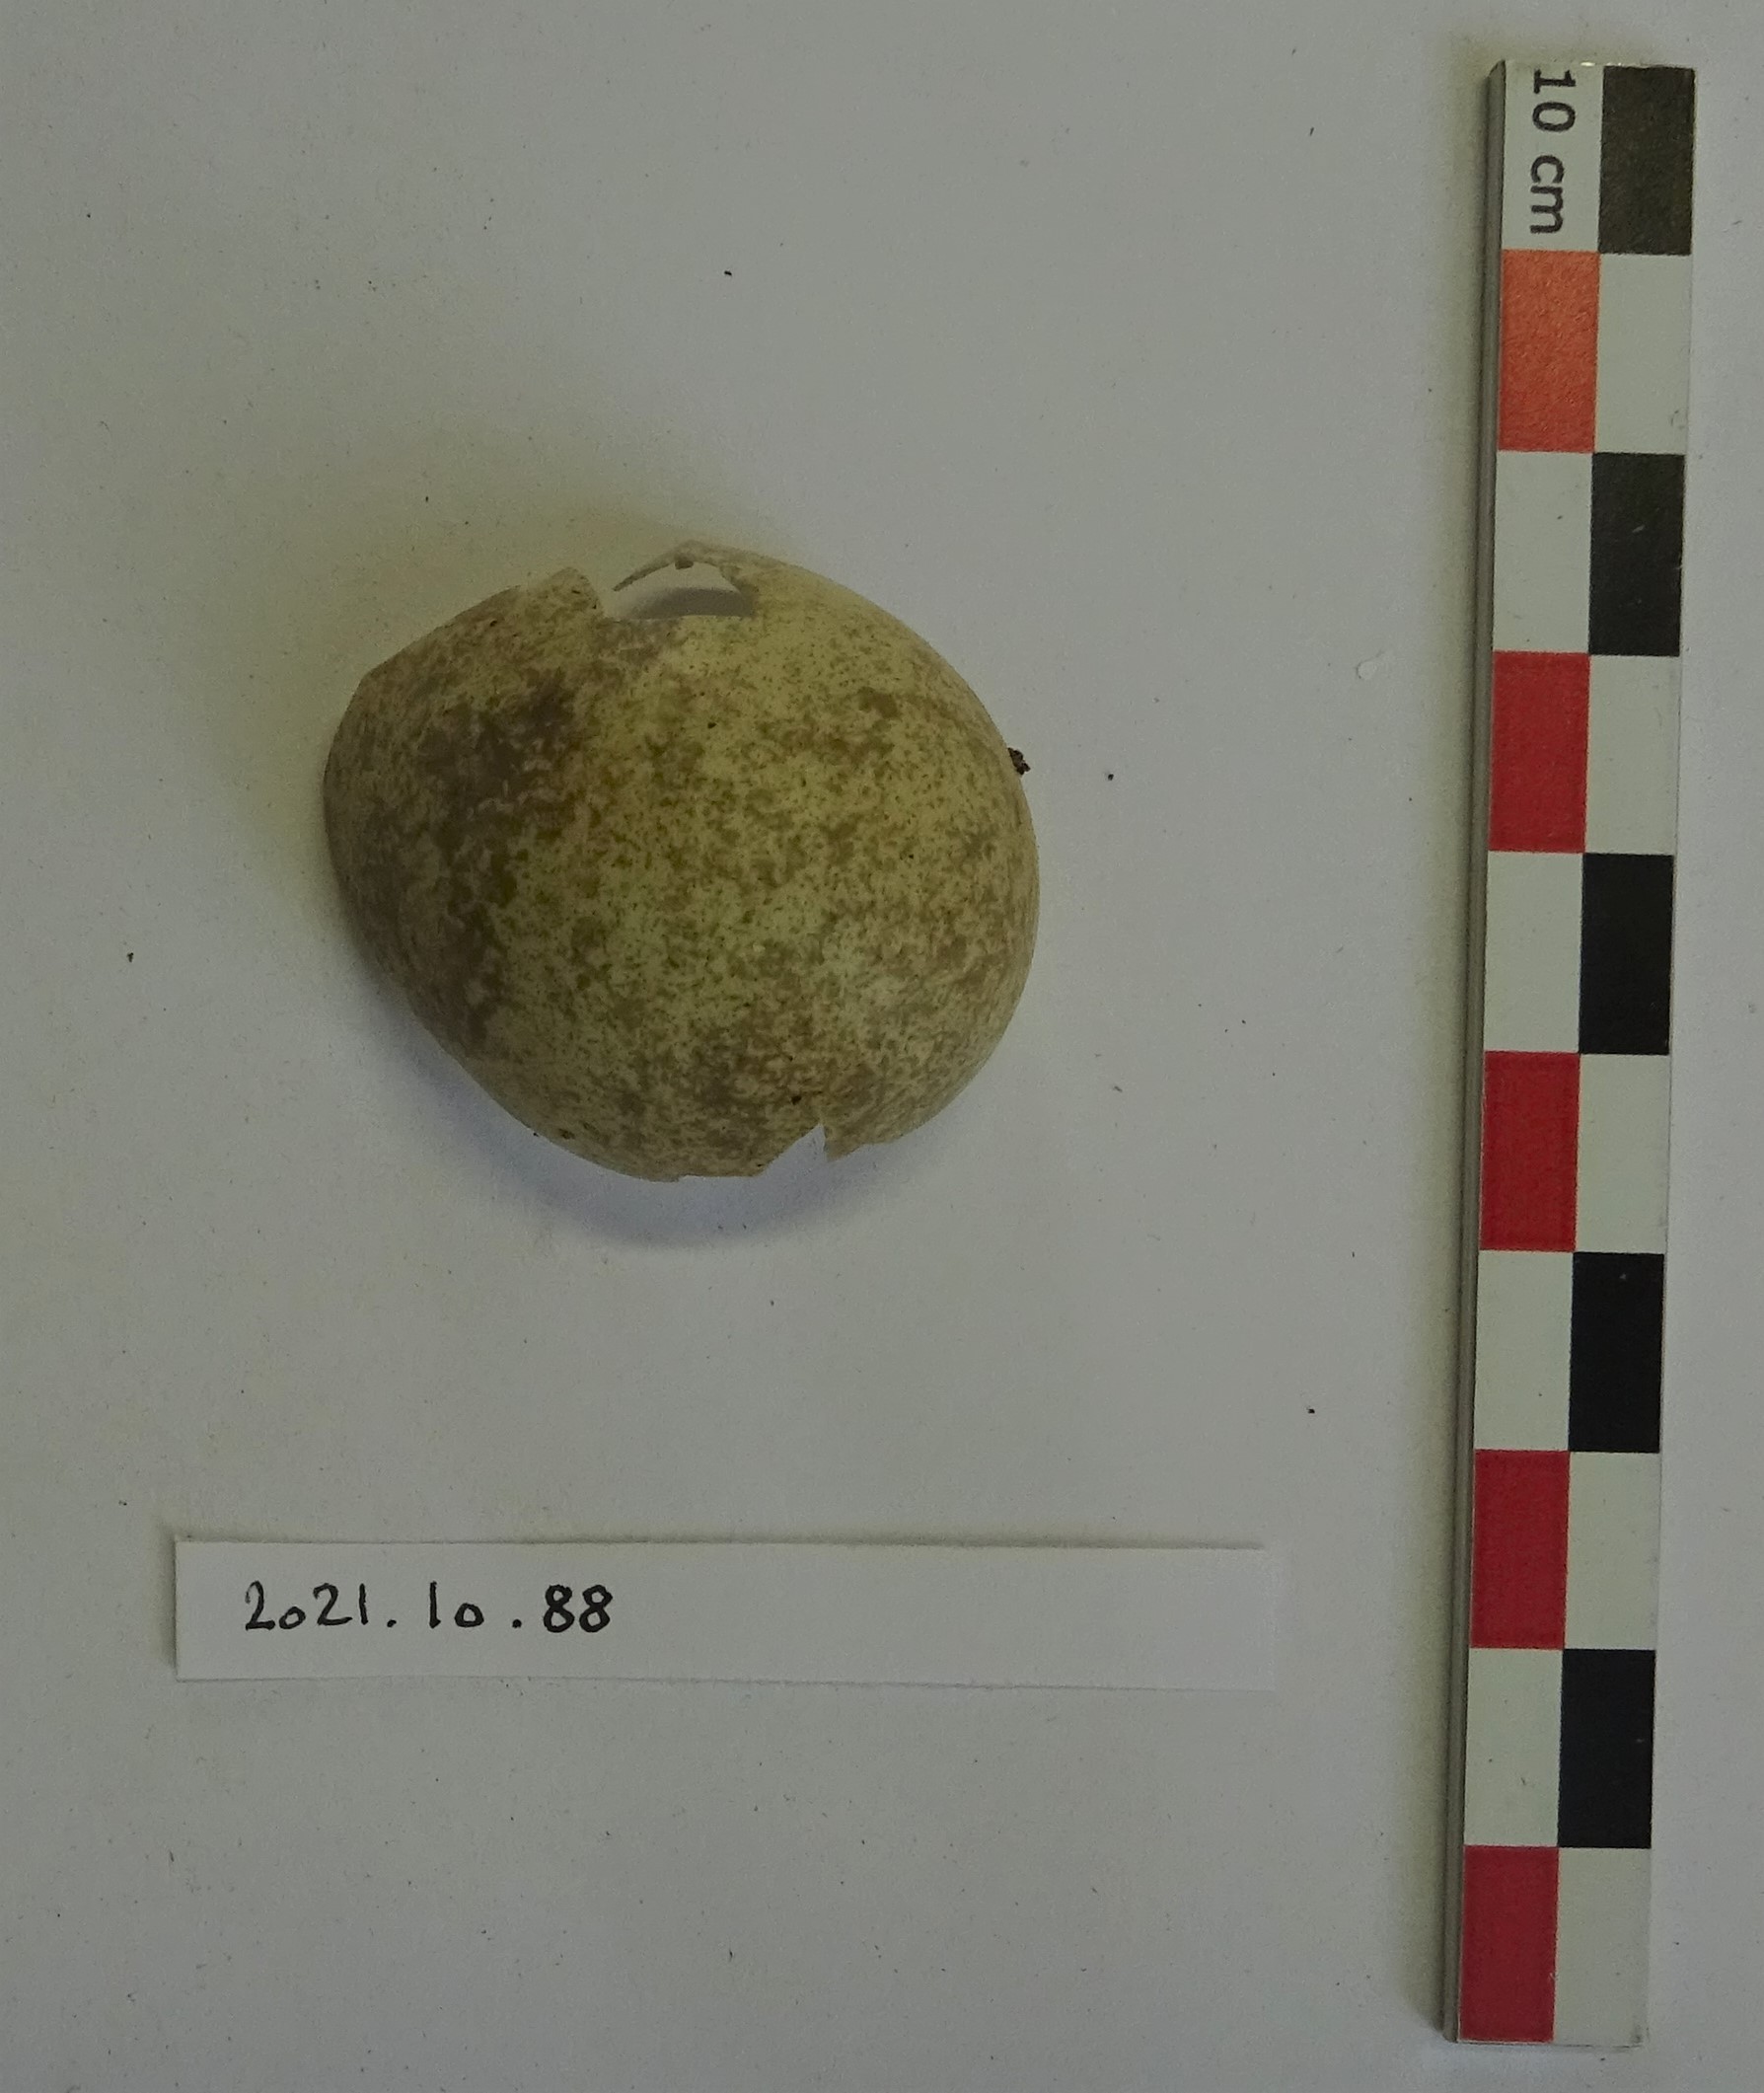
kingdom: Animalia
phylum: Chordata
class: Aves
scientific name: Aves
